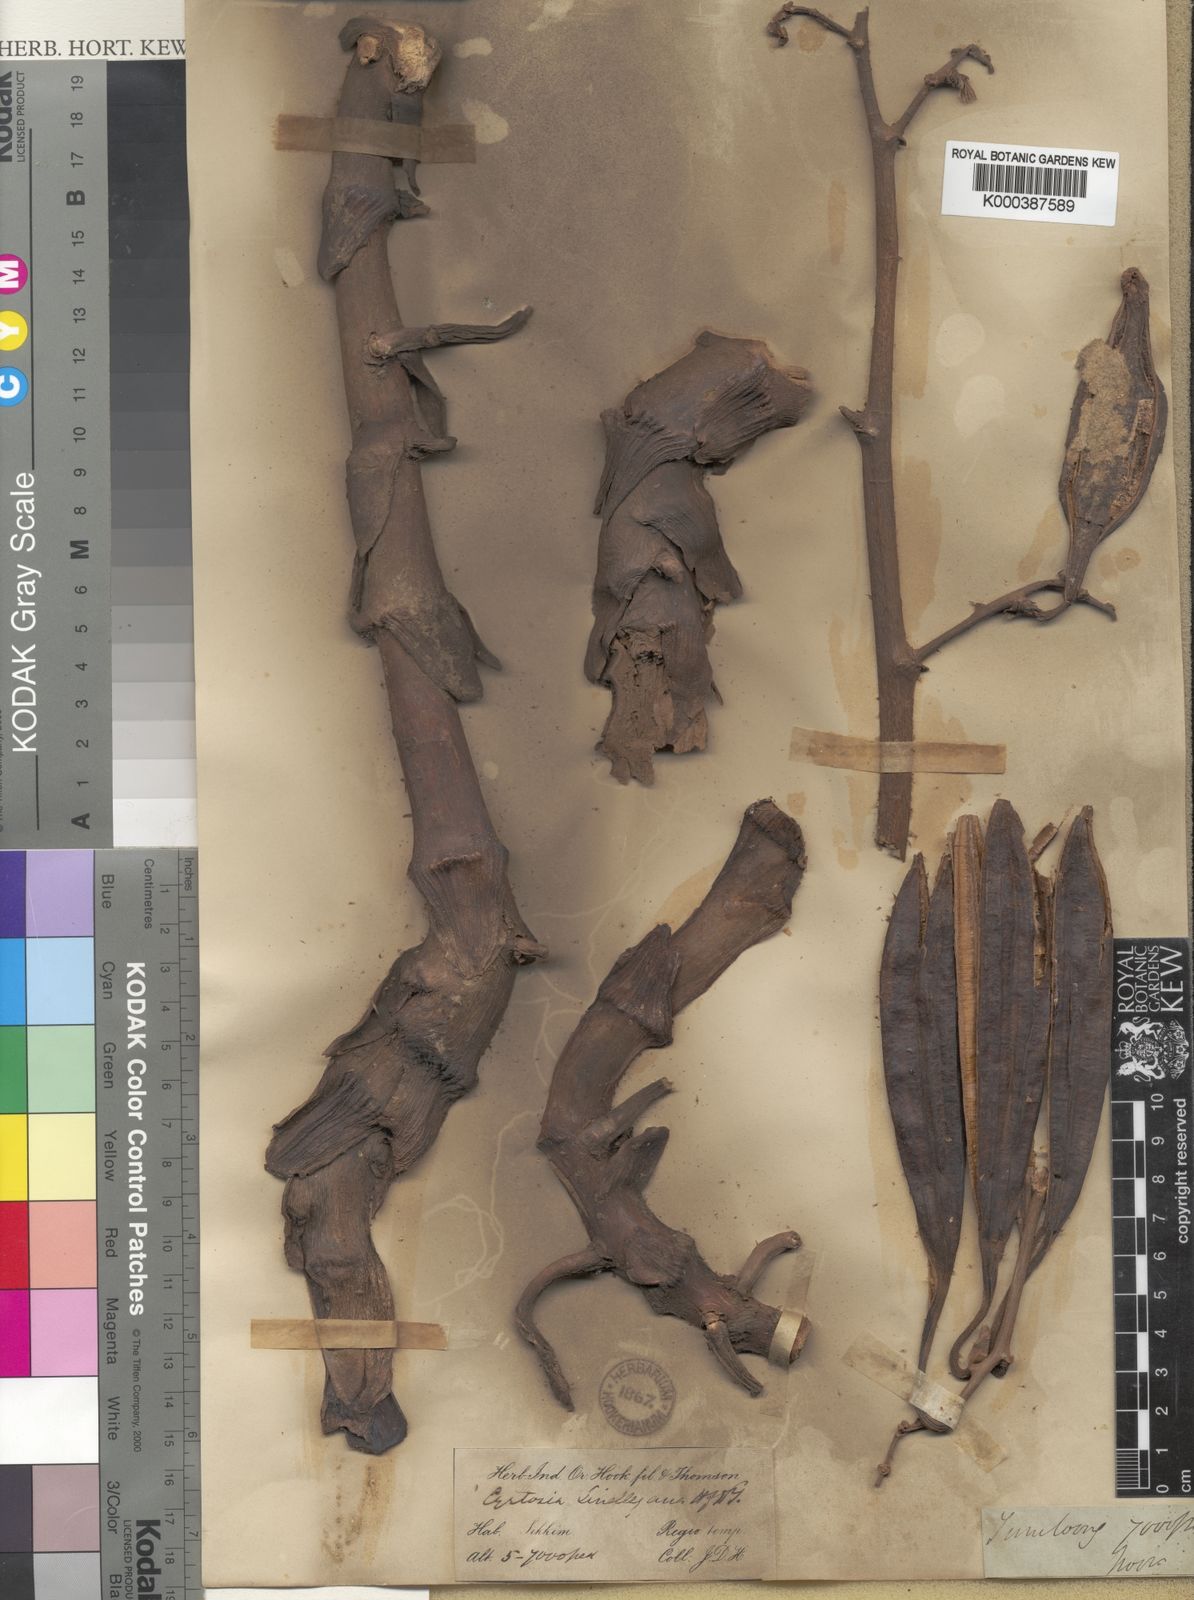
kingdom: Plantae
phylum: Tracheophyta
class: Liliopsida
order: Asparagales
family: Orchidaceae
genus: Cyrtosia
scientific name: Cyrtosia lindleyana
